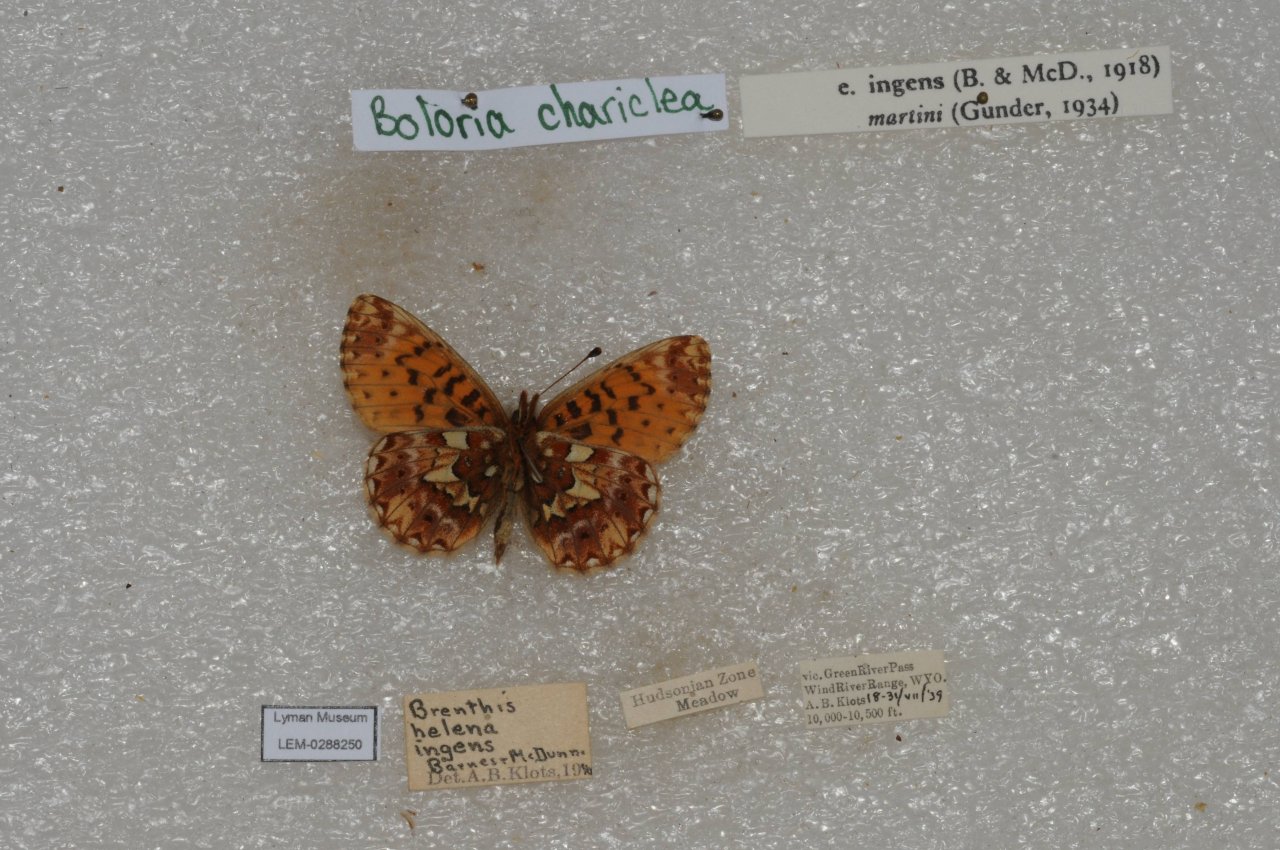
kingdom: Animalia
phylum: Arthropoda
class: Insecta
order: Lepidoptera
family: Nymphalidae
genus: Boloria
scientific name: Boloria chariclea
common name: Arctic Fritillary
